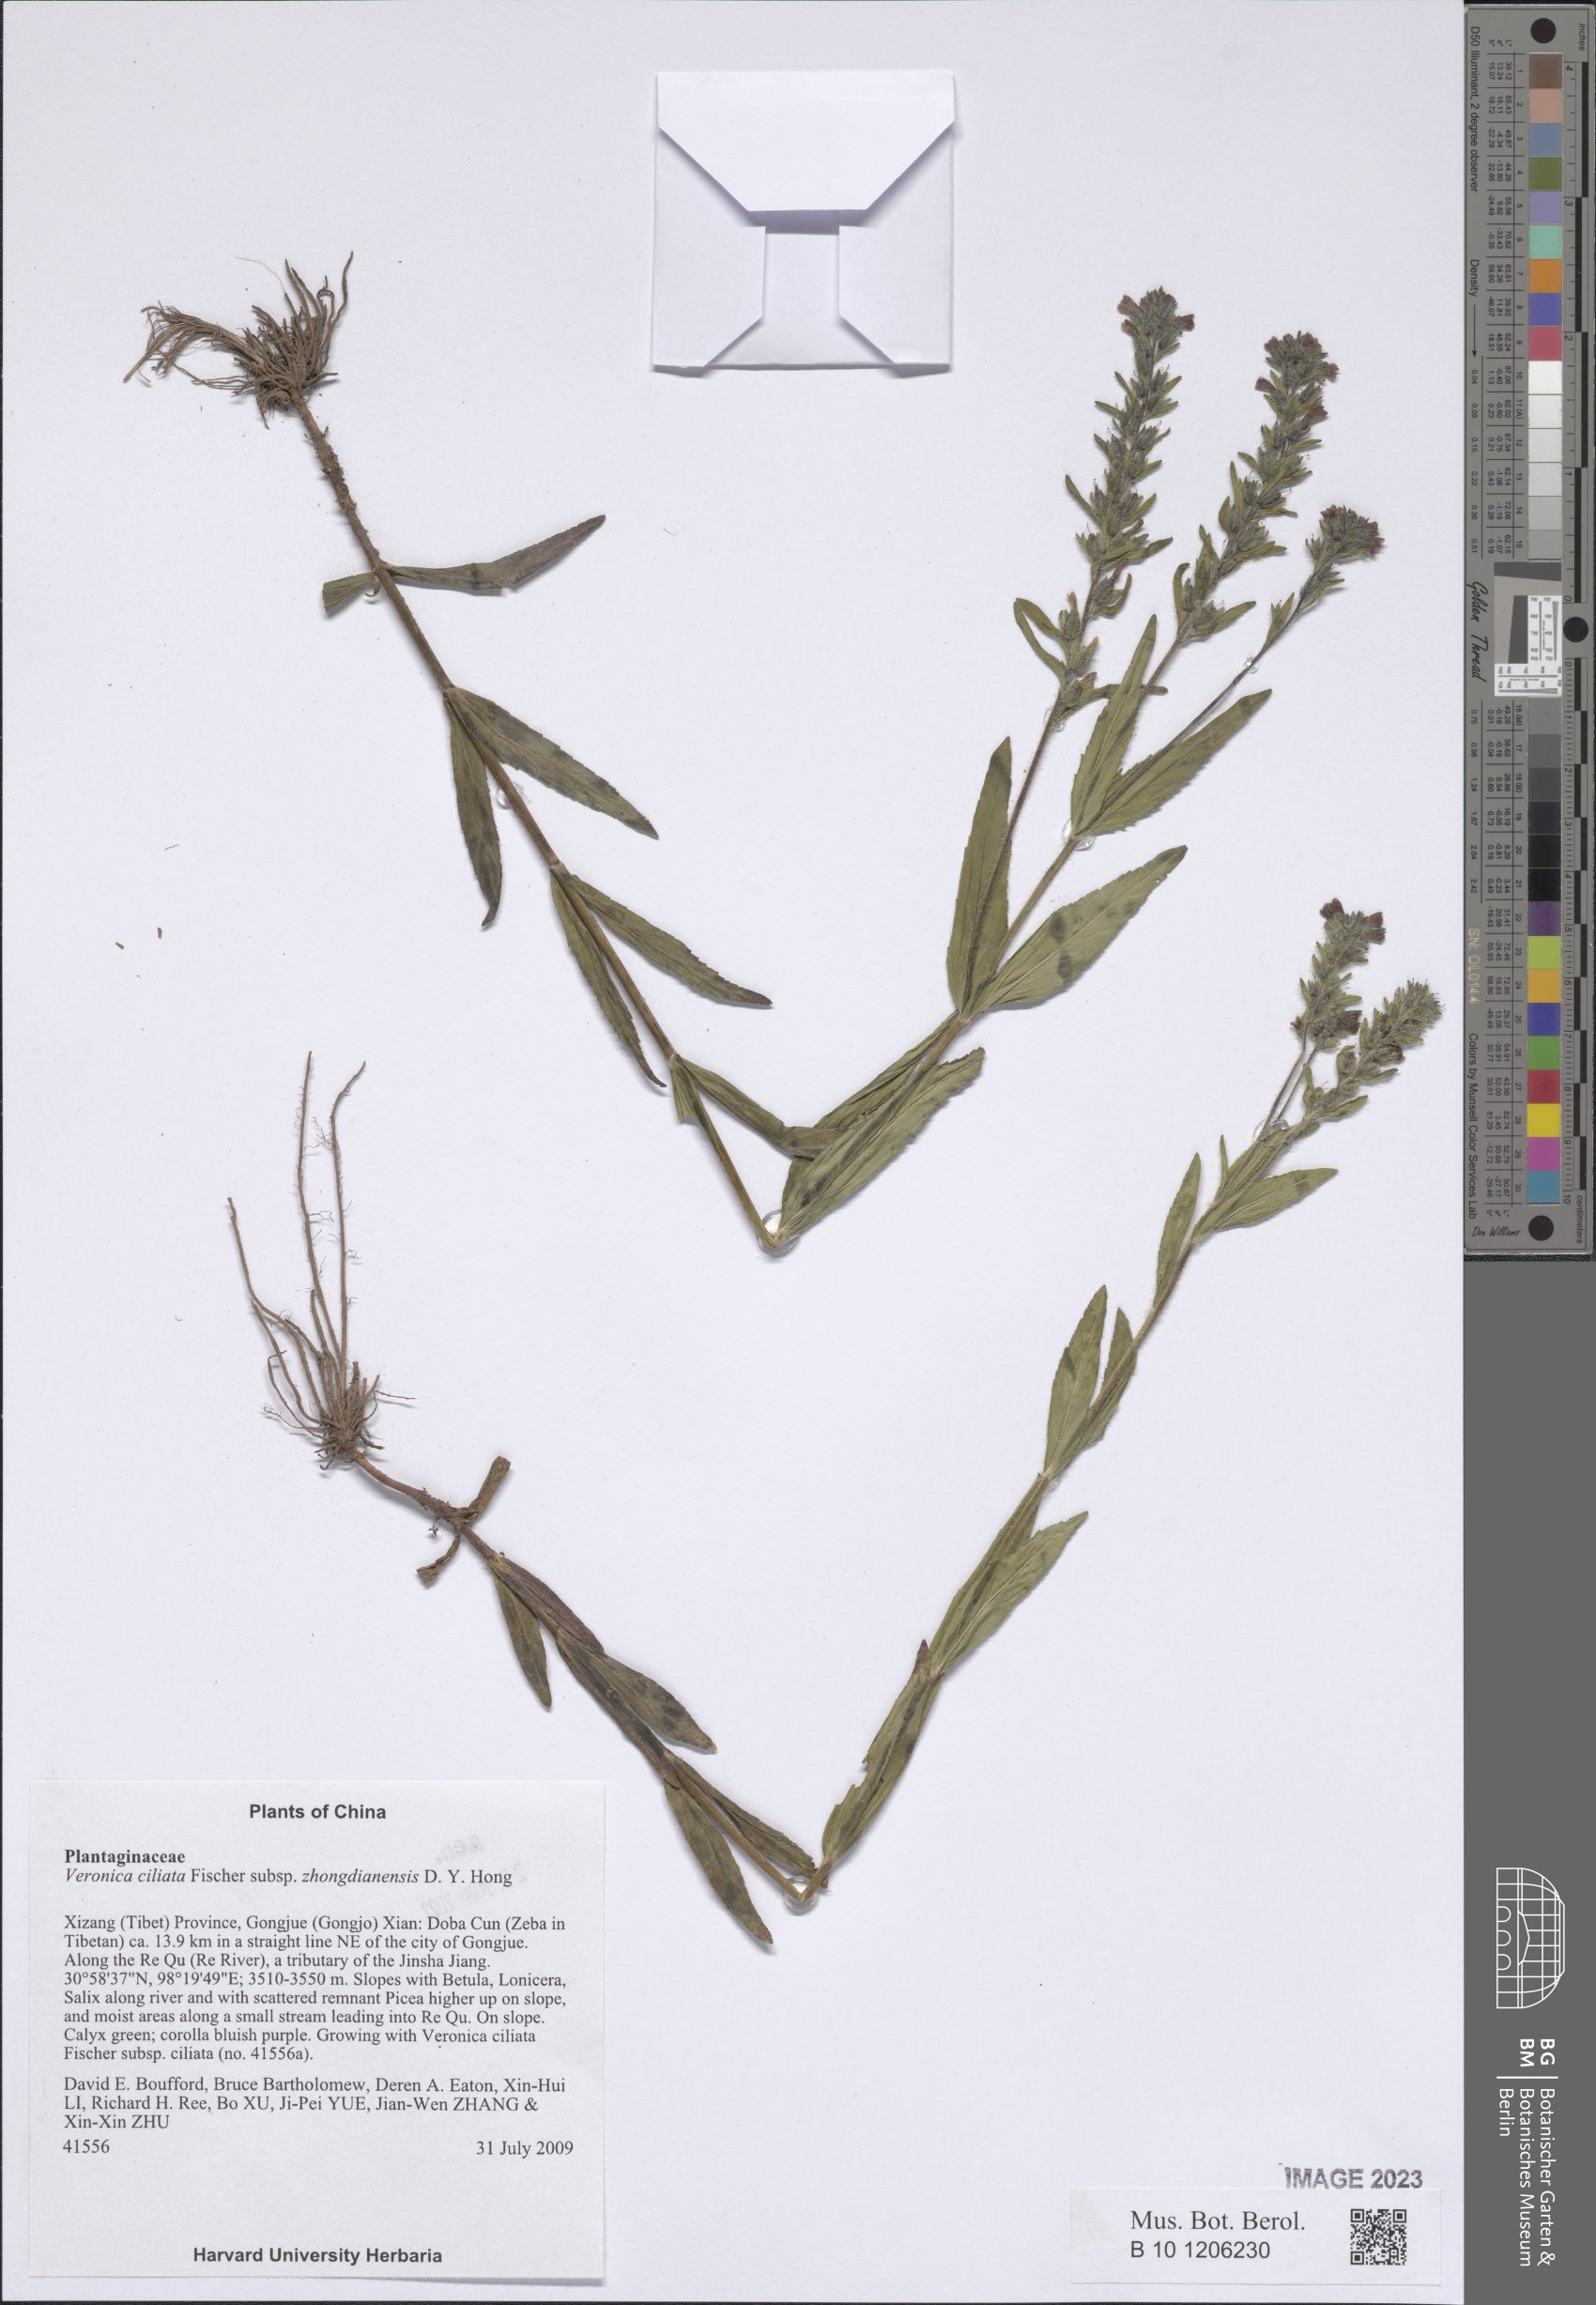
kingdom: Plantae
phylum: Tracheophyta
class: Magnoliopsida
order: Lamiales
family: Plantaginaceae
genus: Veronica
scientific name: Veronica ciliata
